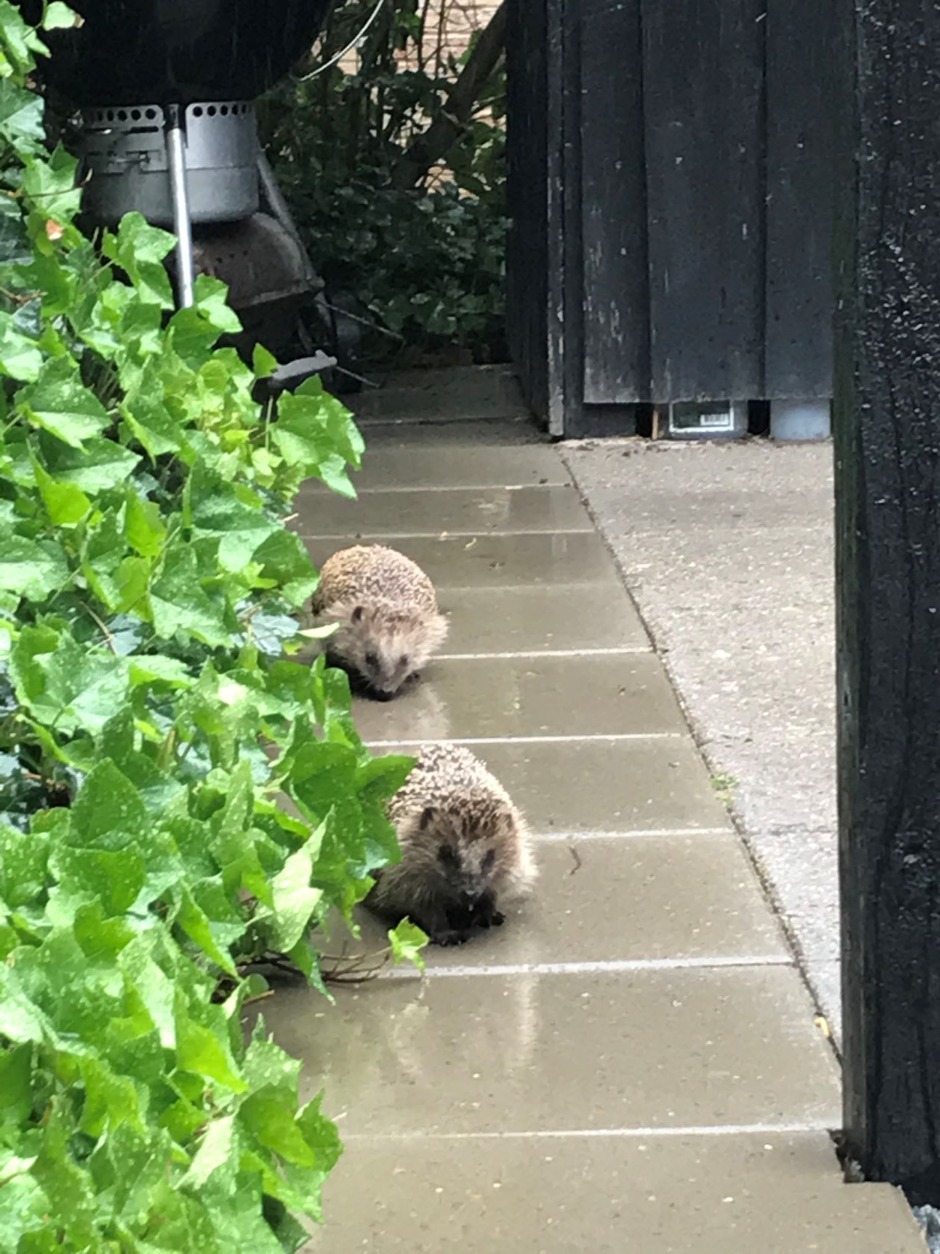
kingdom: Animalia
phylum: Chordata
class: Mammalia
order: Erinaceomorpha
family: Erinaceidae
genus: Erinaceus
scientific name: Erinaceus europaeus
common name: Pindsvin
